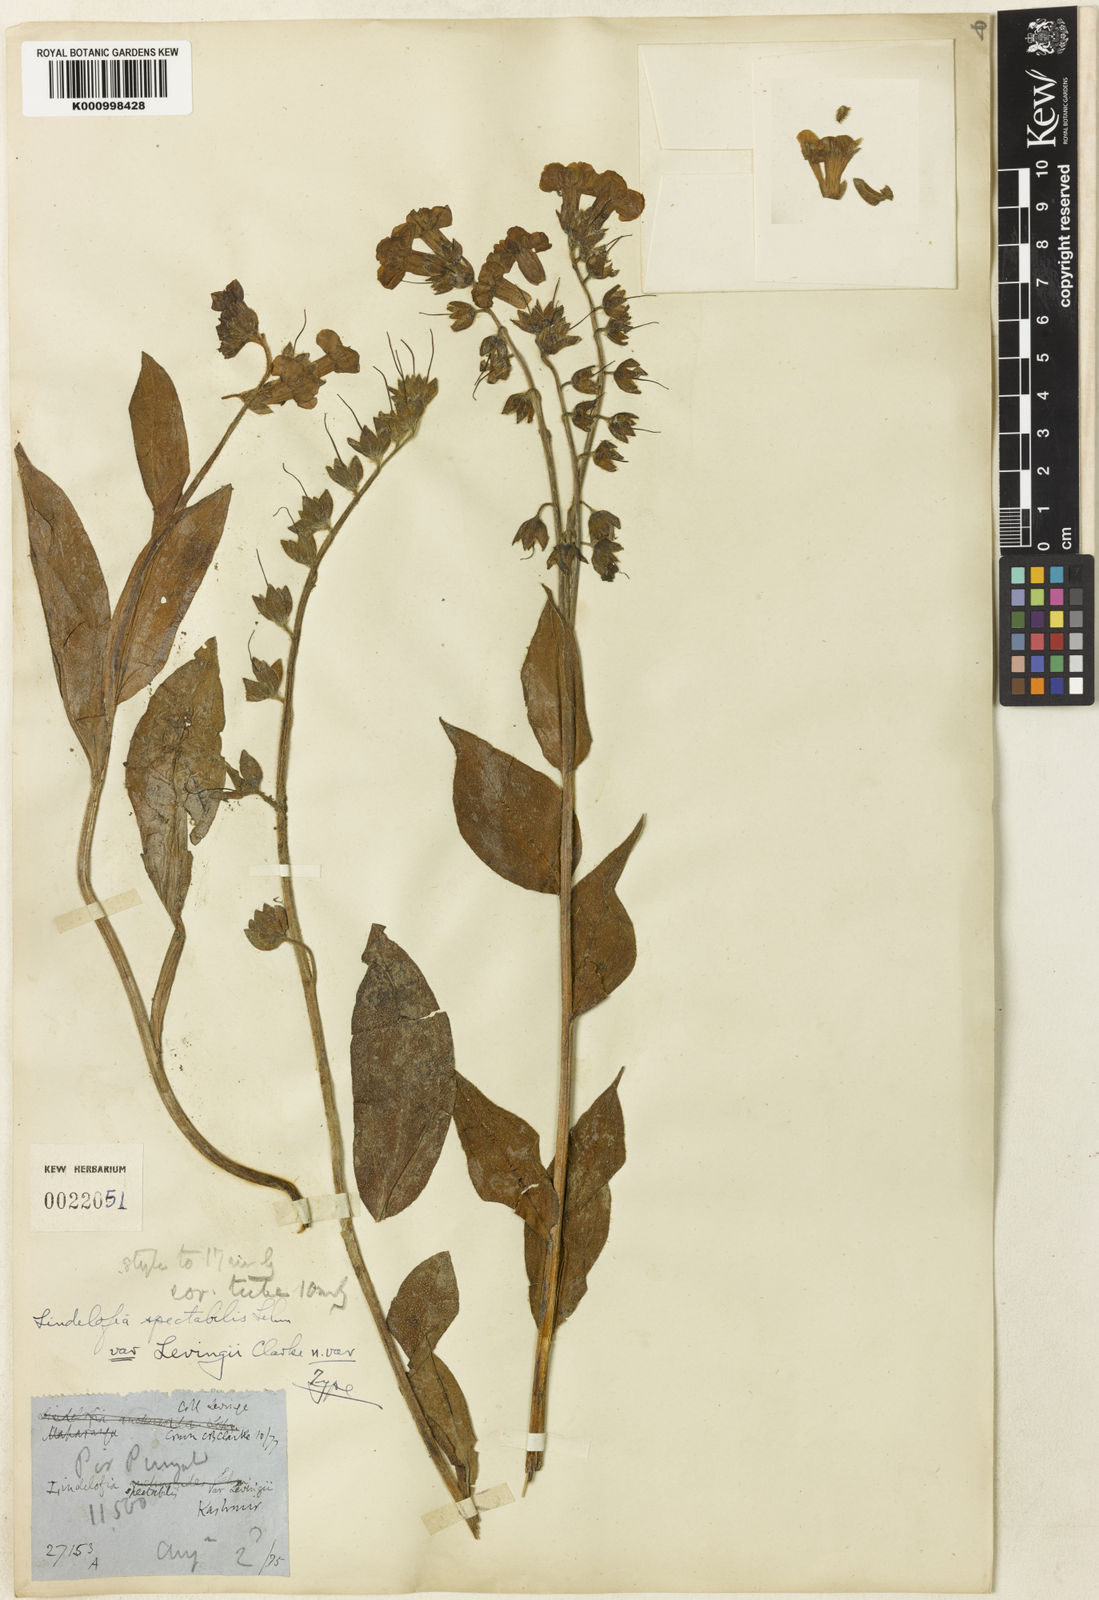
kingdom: Plantae
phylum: Tracheophyta
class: Magnoliopsida
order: Boraginales
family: Boraginaceae
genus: Lindelofia
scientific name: Lindelofia longiflora
